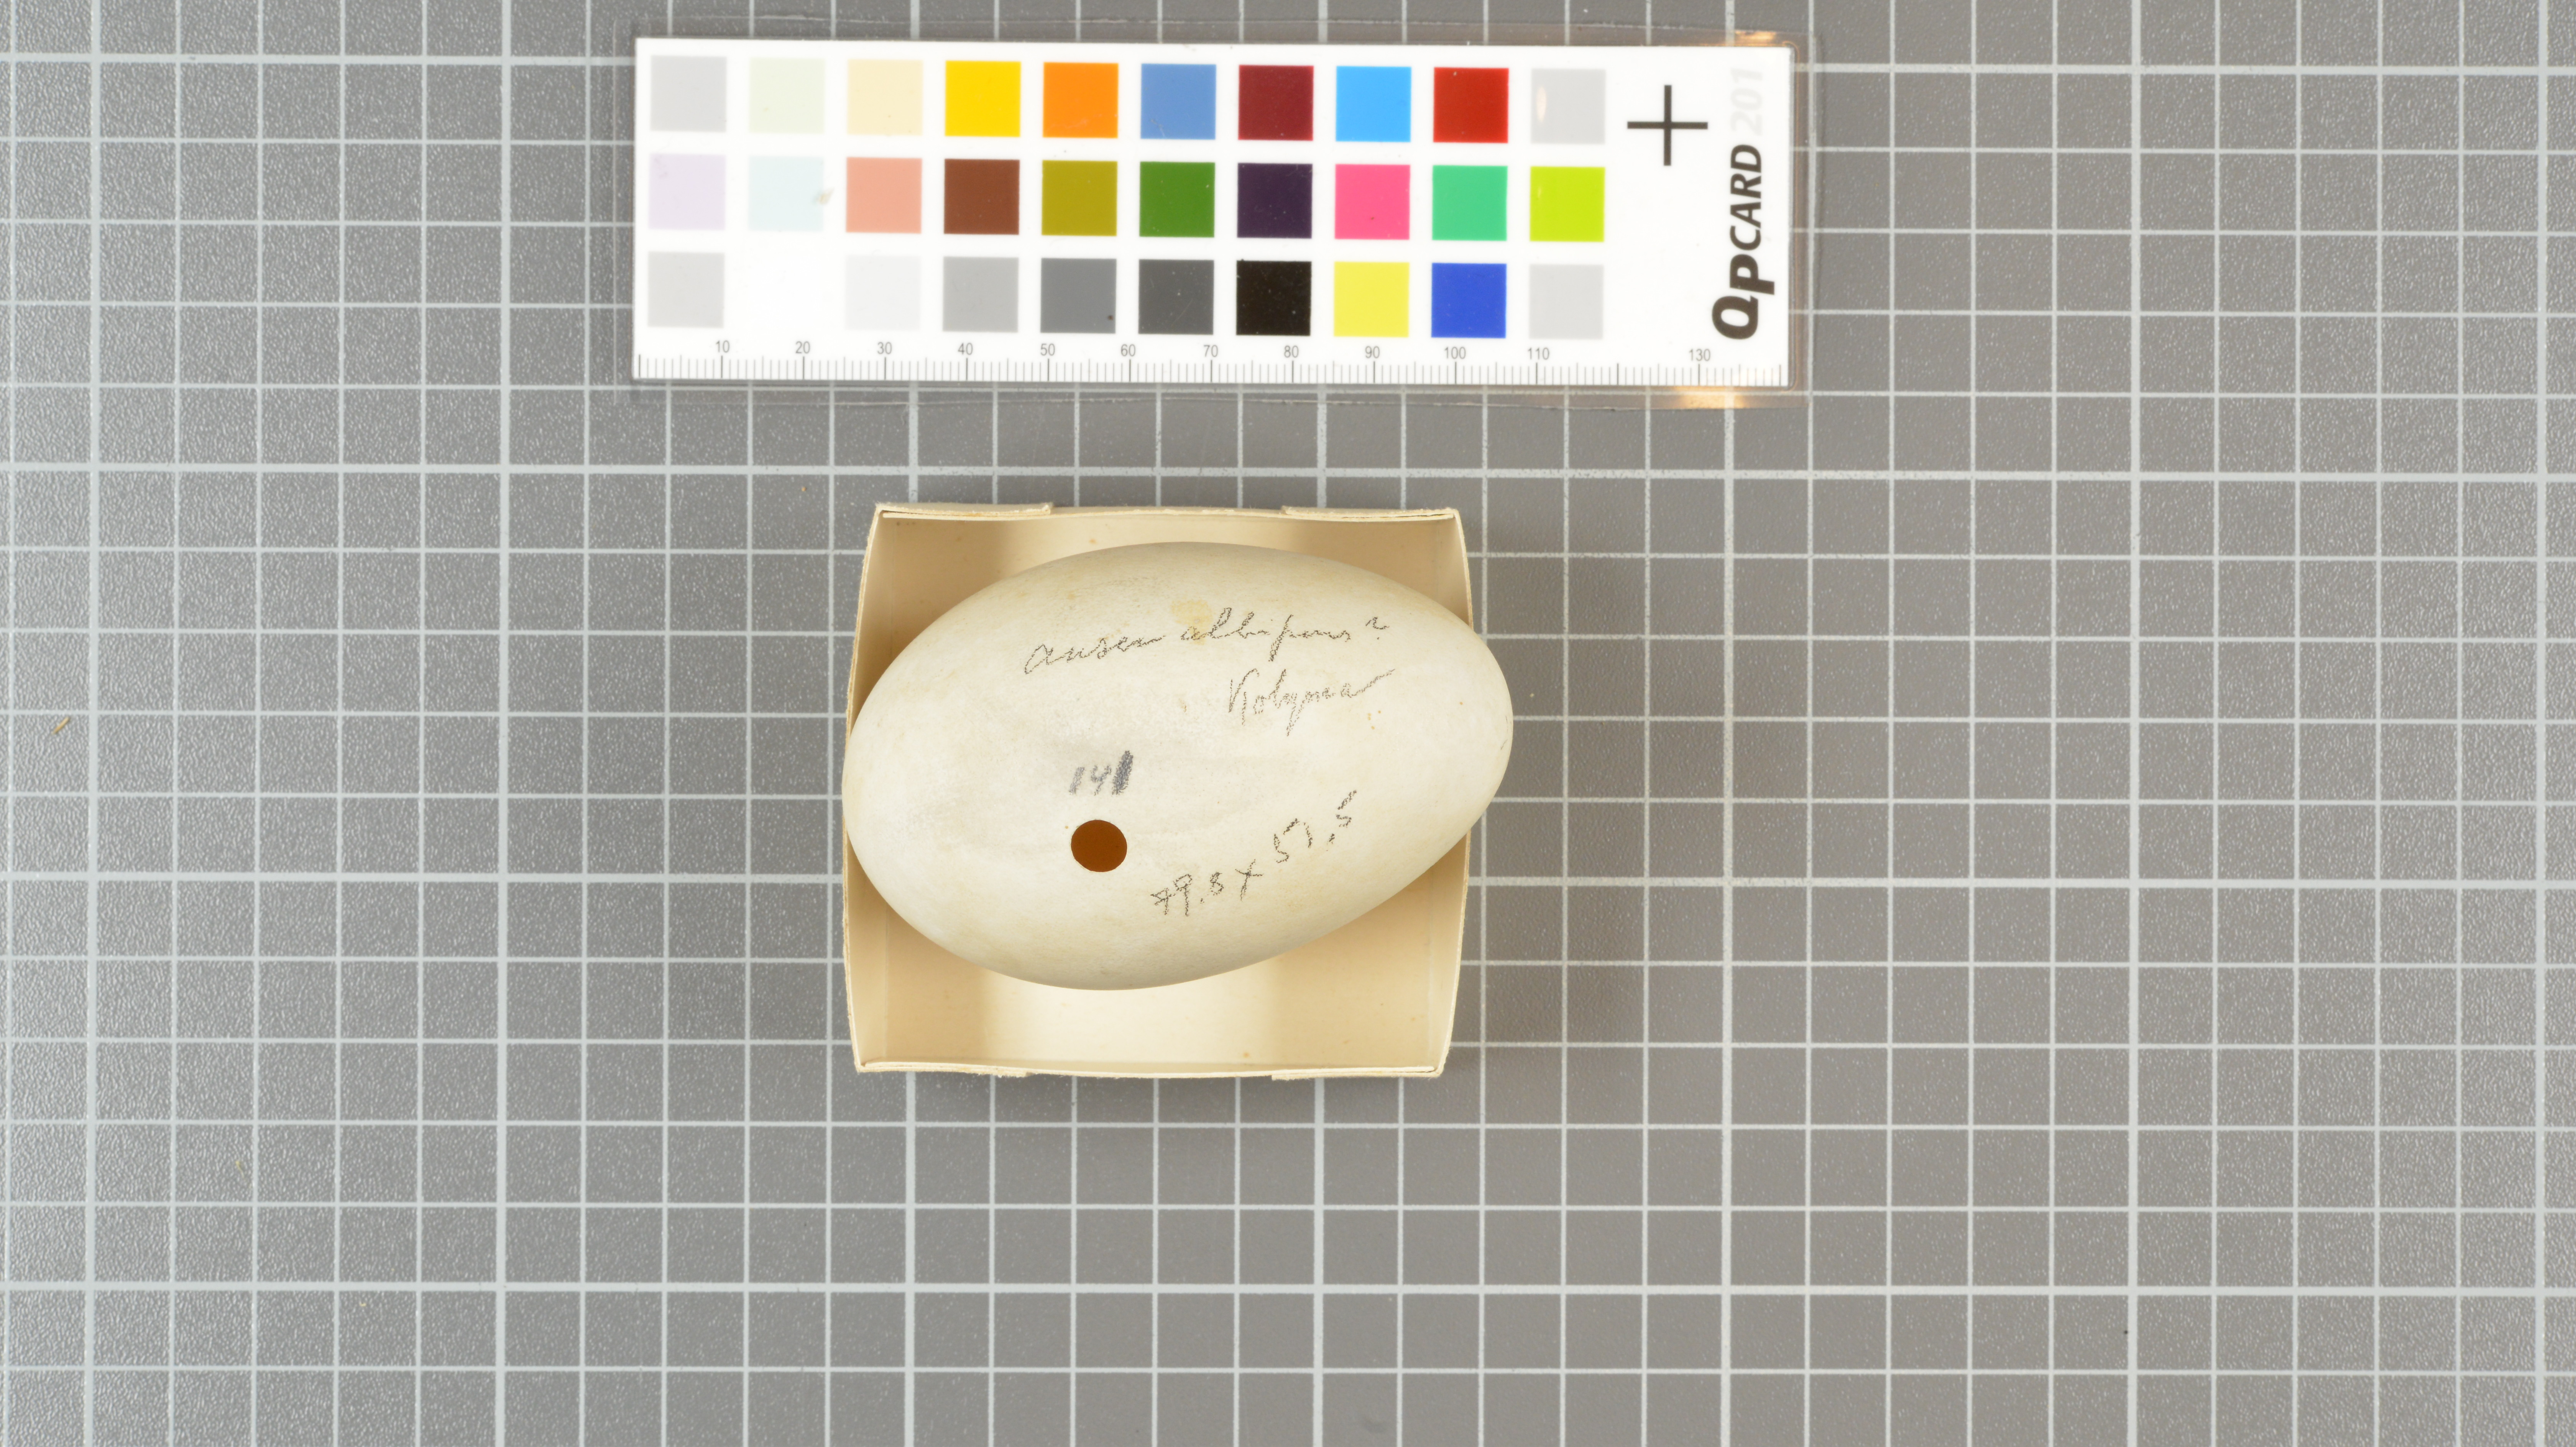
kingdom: Animalia
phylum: Chordata
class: Aves
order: Anseriformes
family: Anatidae
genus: Anser
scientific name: Anser albifrons
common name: Greater white-fronted goose
